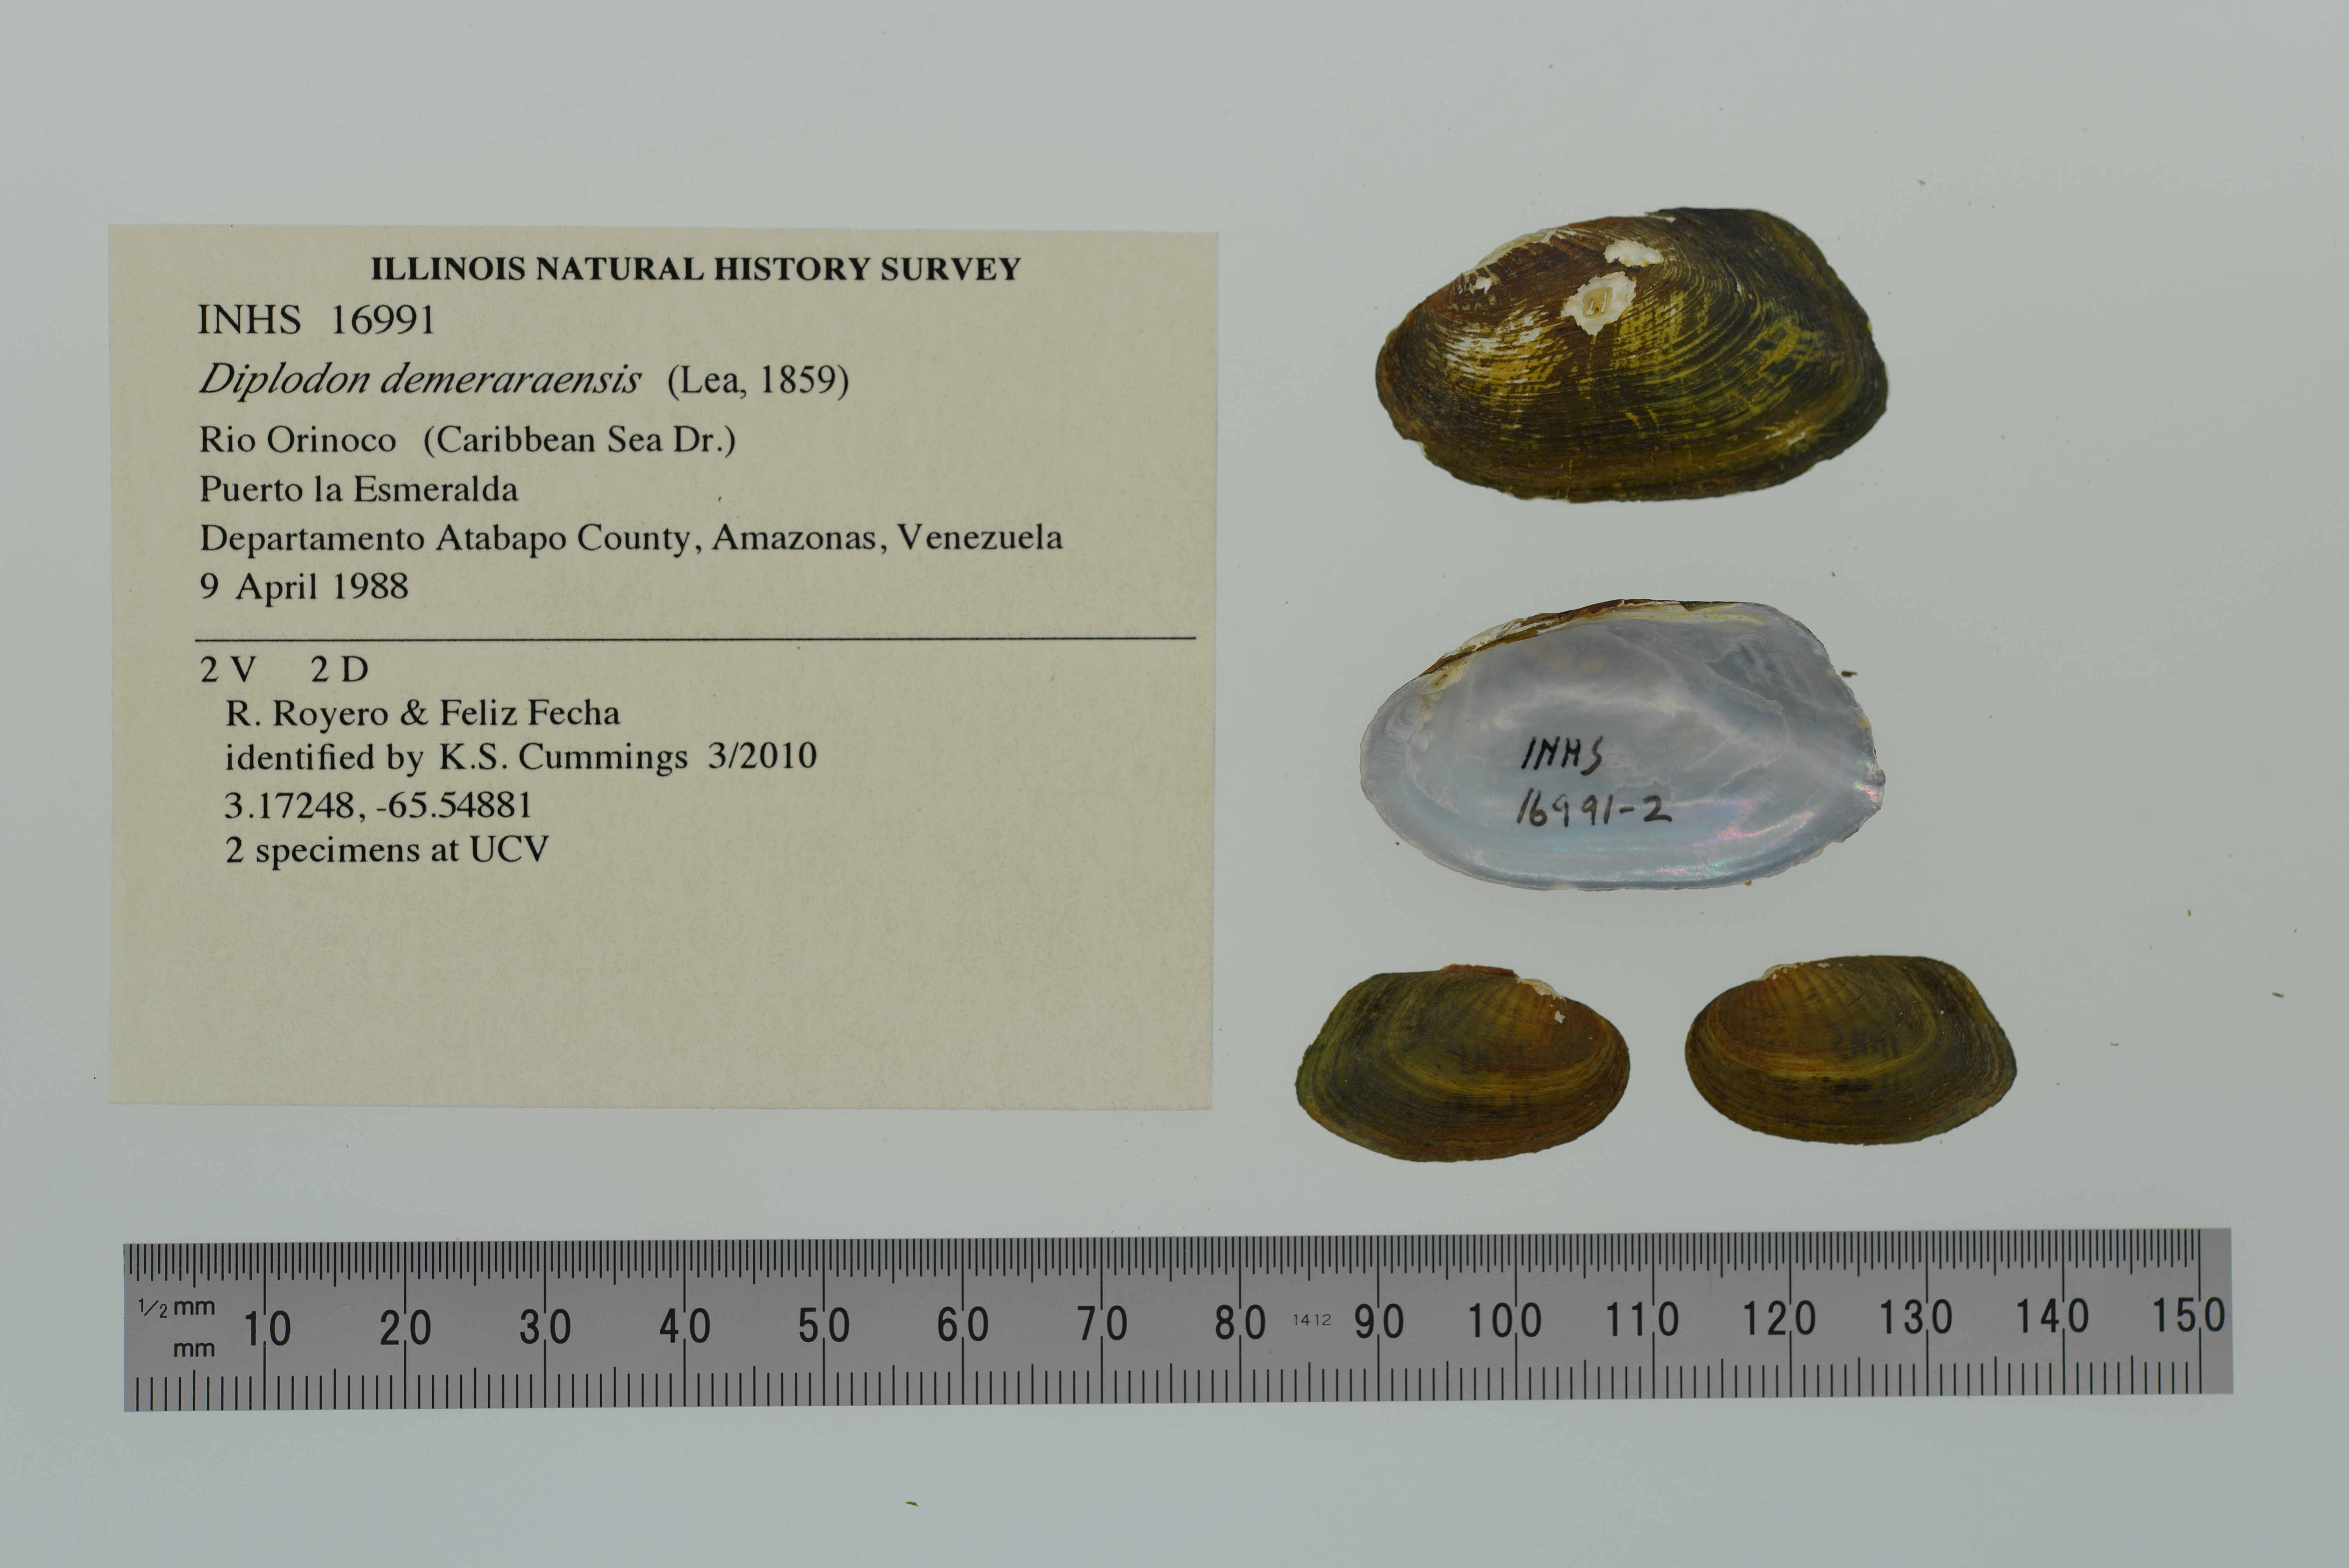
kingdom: Animalia
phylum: Mollusca
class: Bivalvia
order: Unionida
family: Hyriidae
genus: Diplodon
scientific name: Diplodon demeraraensis
